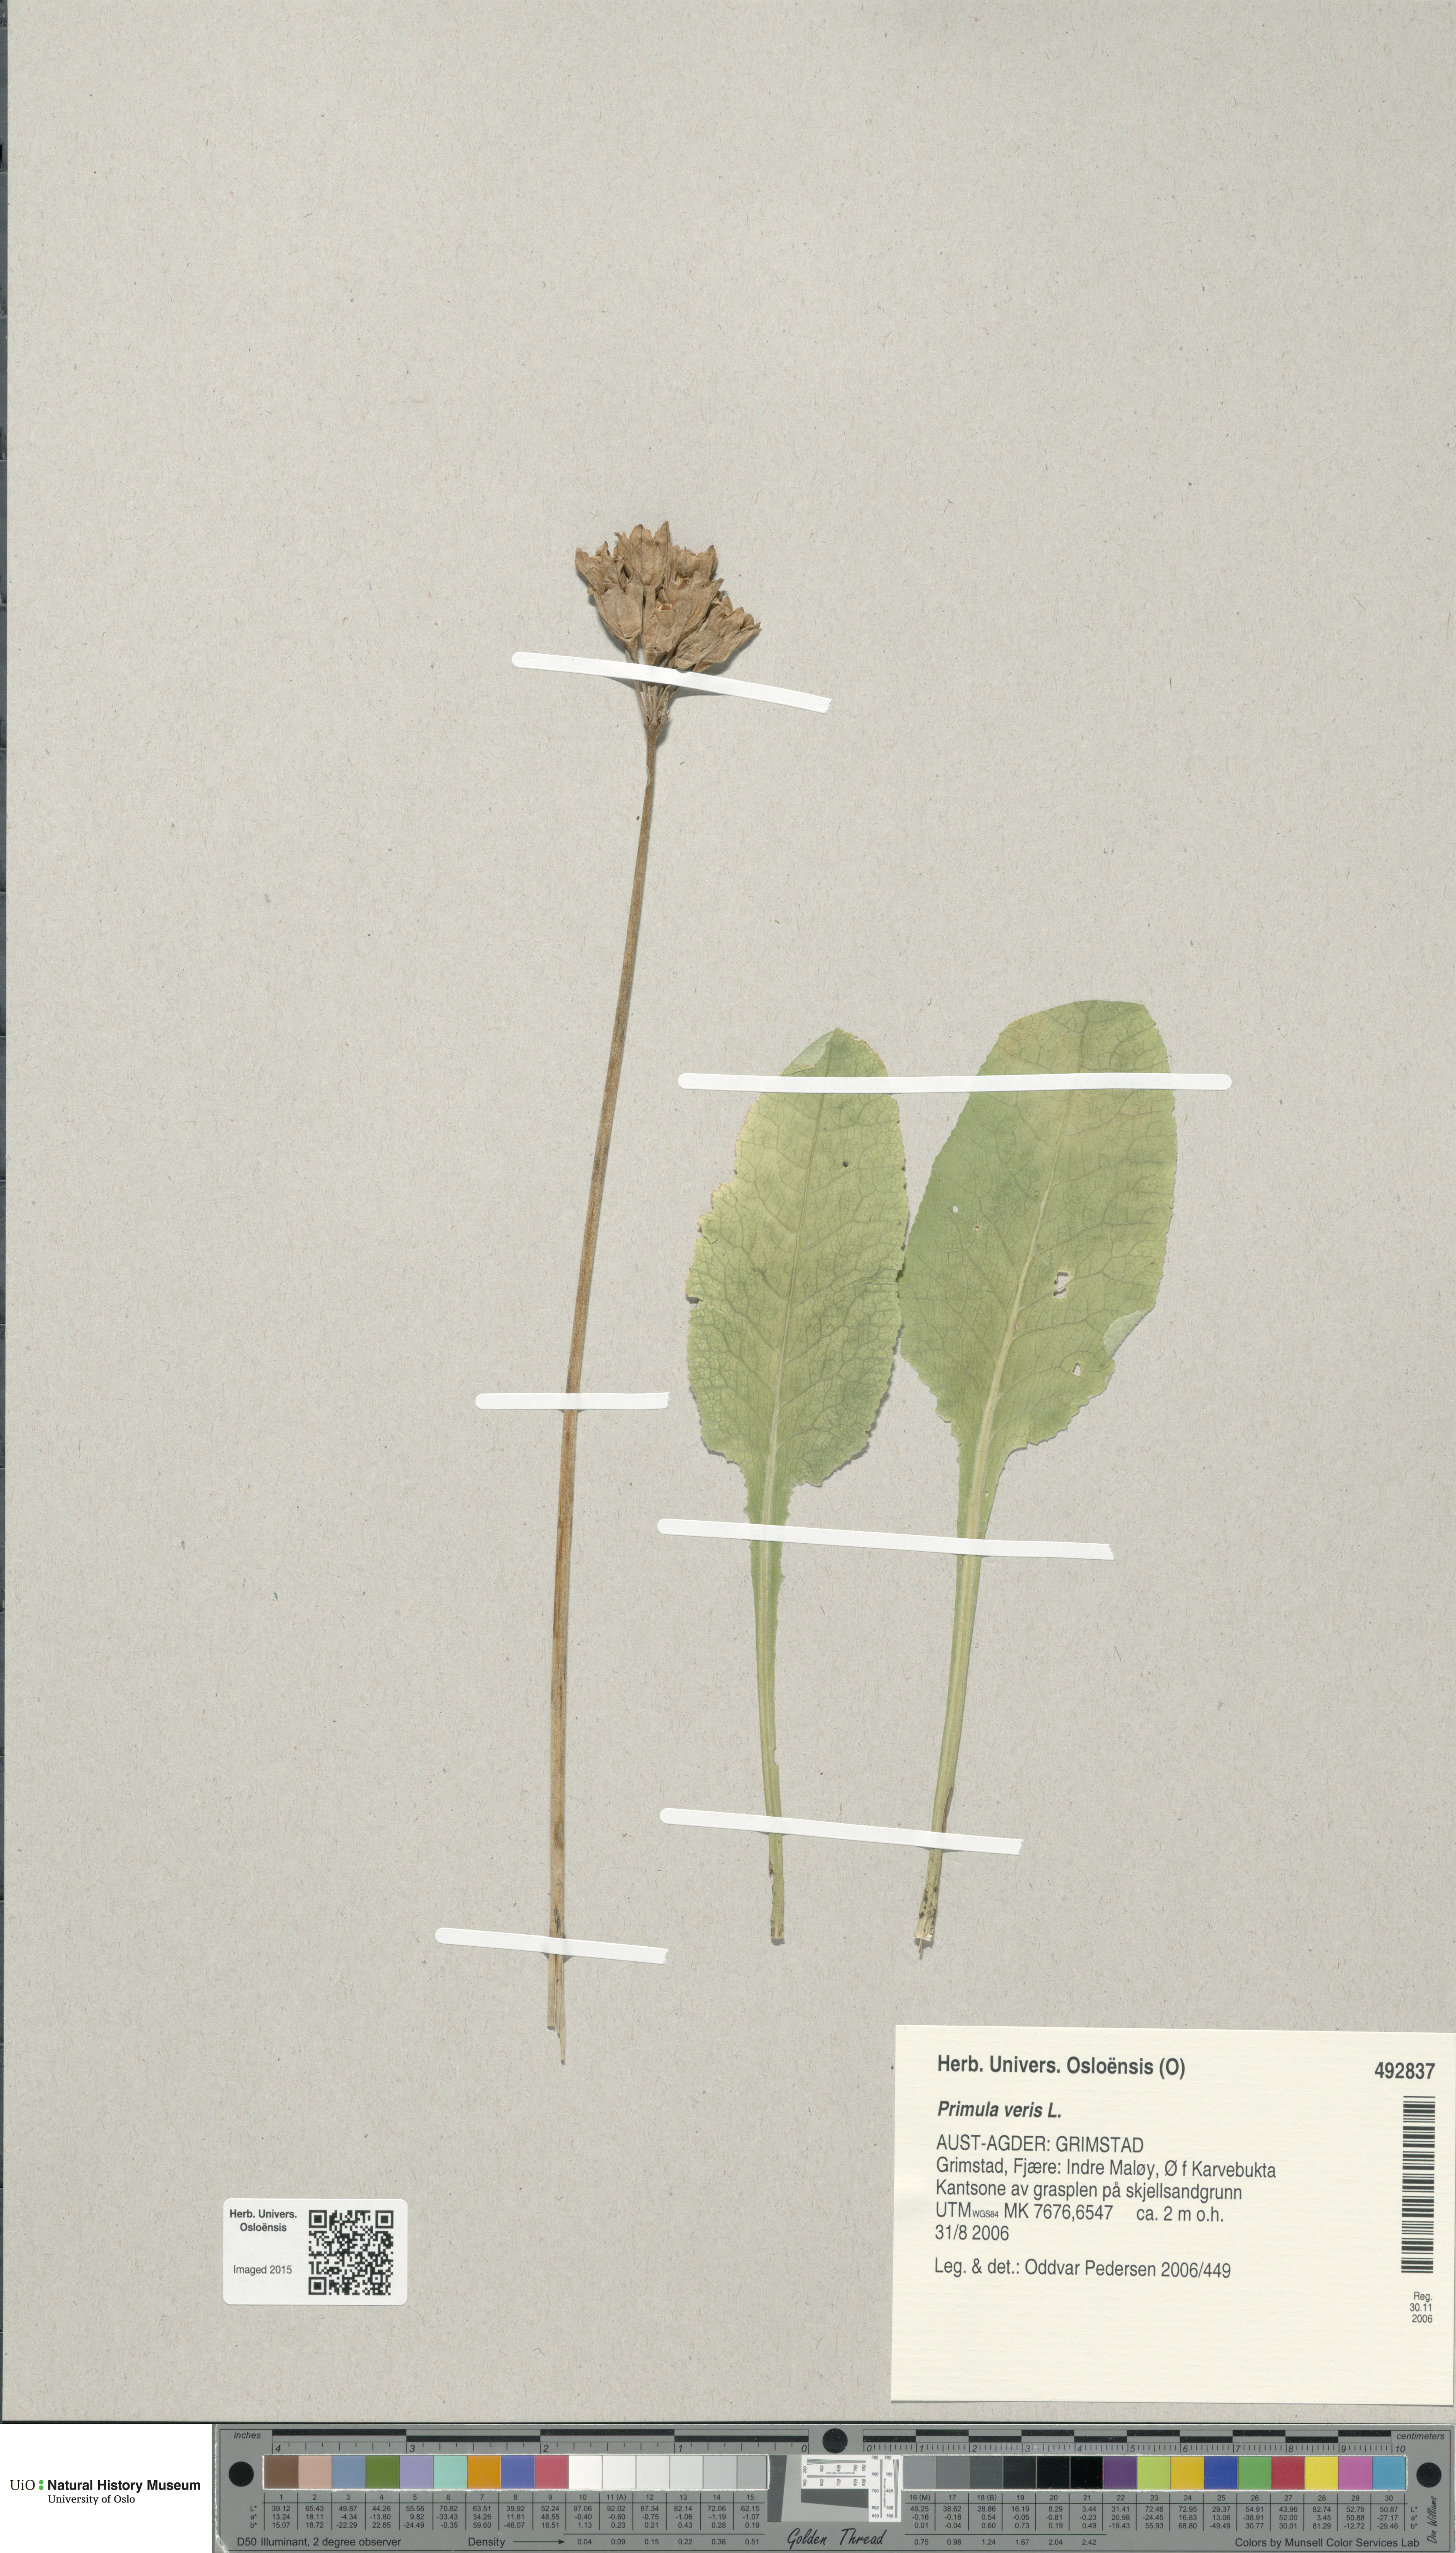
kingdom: Plantae
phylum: Tracheophyta
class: Magnoliopsida
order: Ericales
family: Primulaceae
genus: Primula
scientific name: Primula veris
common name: Cowslip
